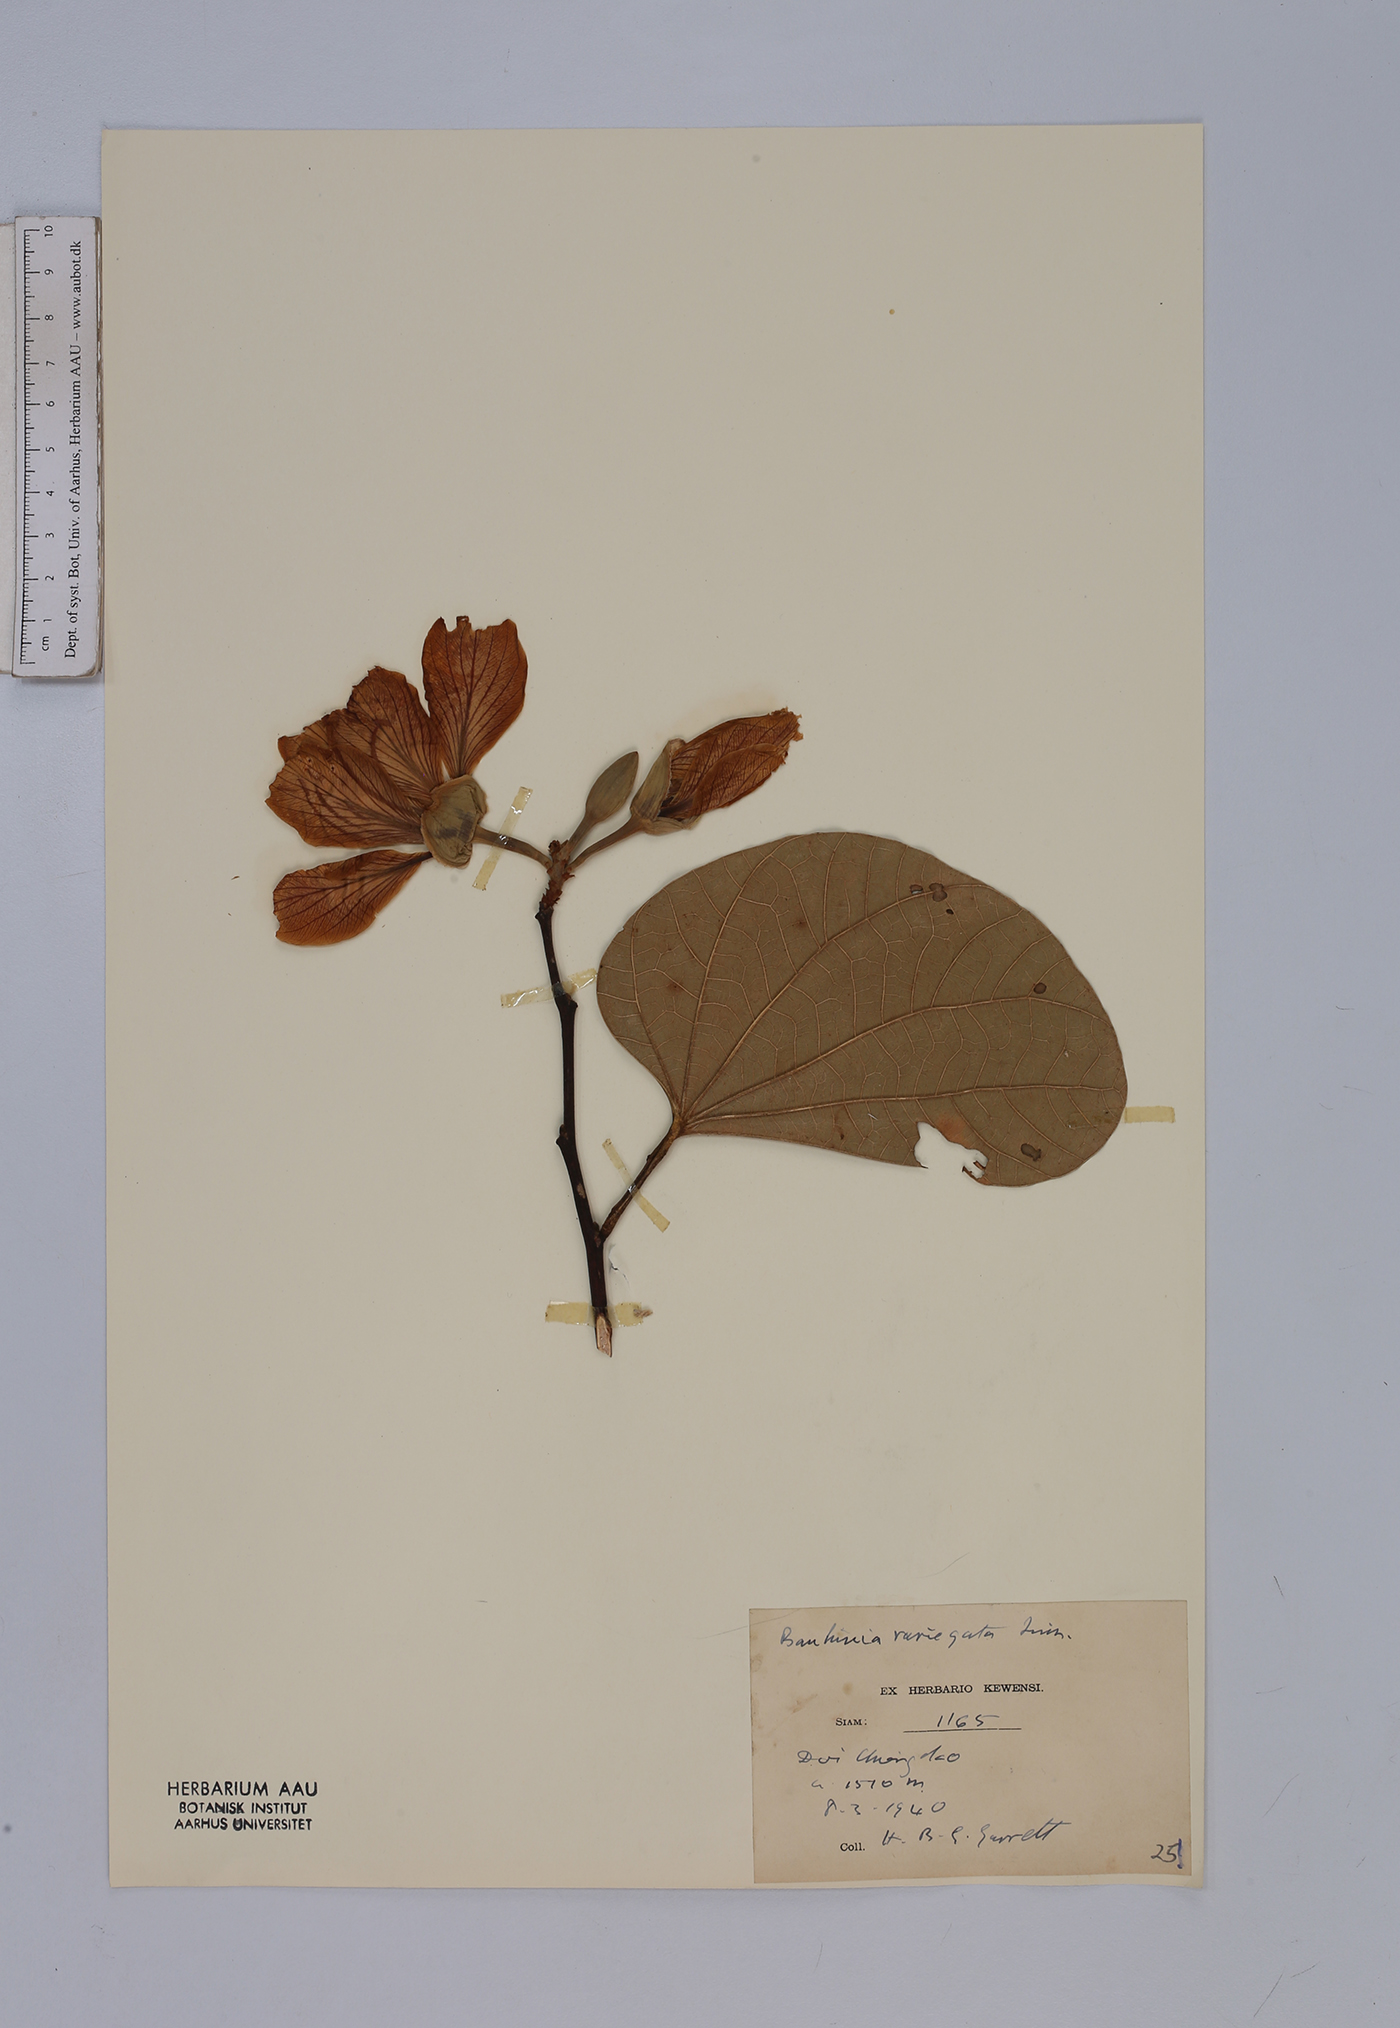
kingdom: Plantae
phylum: Tracheophyta
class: Magnoliopsida
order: Fabales
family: Fabaceae
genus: Bauhinia
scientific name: Bauhinia variegata
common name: Mountain ebony
